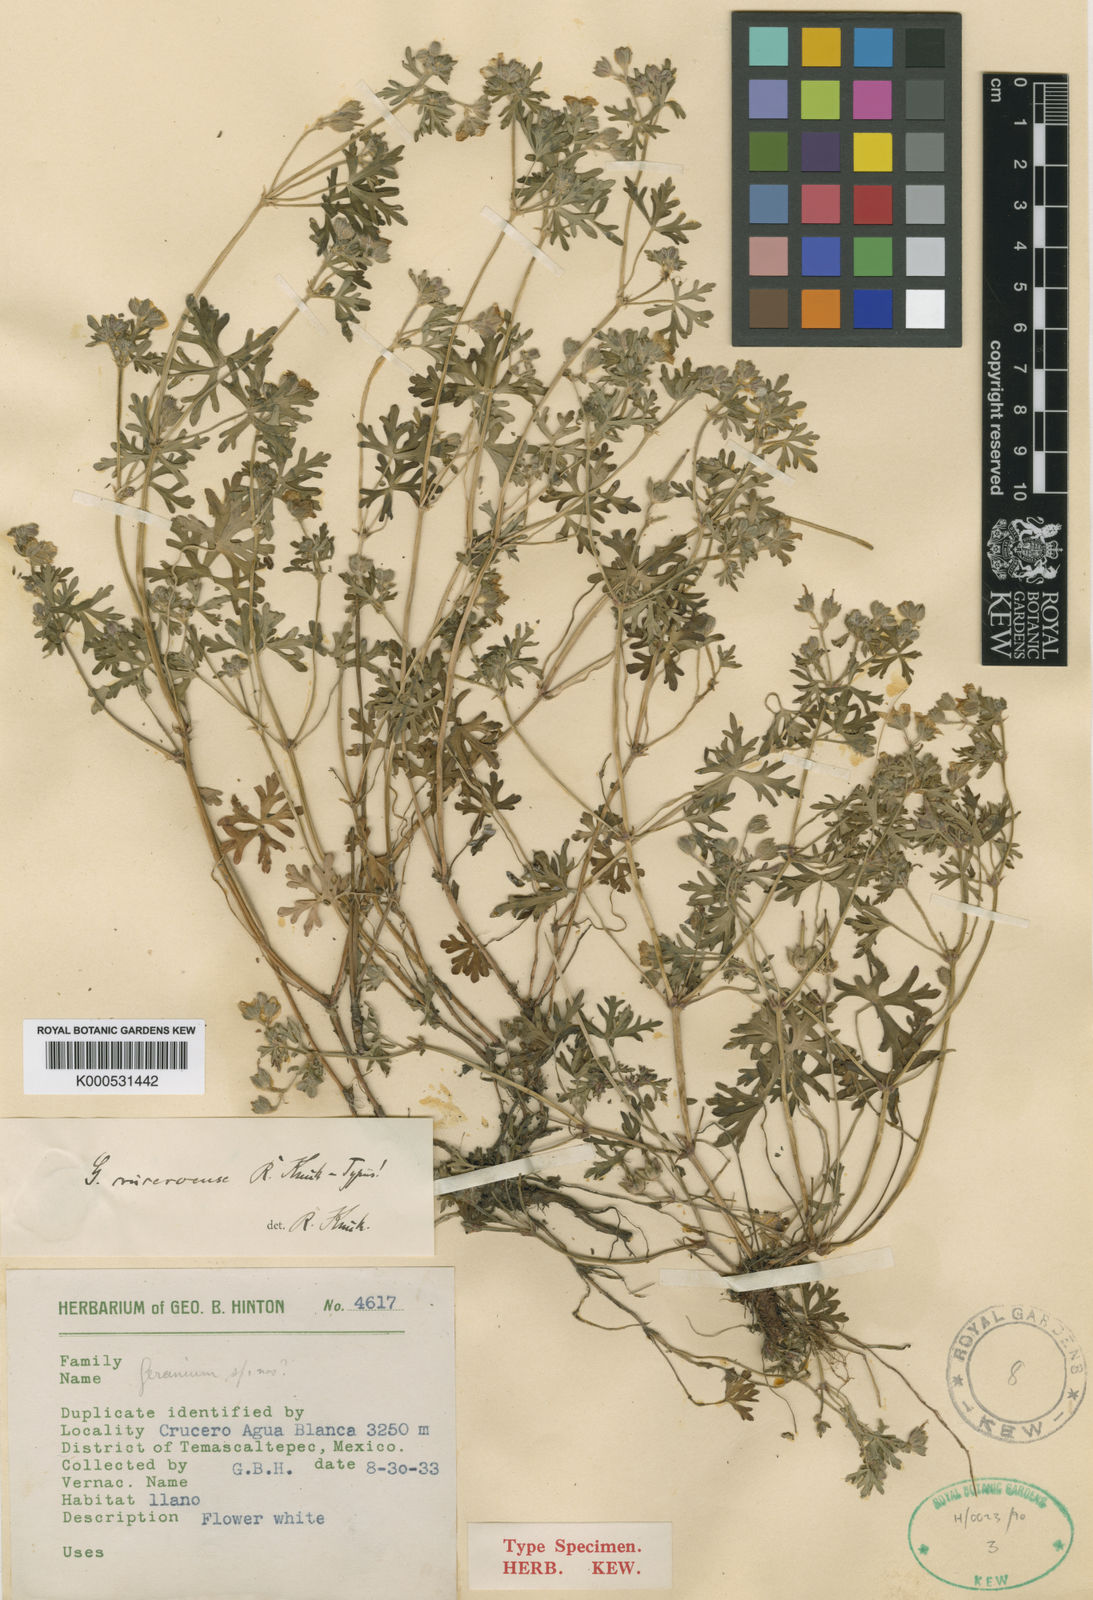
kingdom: Plantae
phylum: Tracheophyta
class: Magnoliopsida
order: Geraniales
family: Geraniaceae
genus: Geranium
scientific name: Geranium wislizeni
